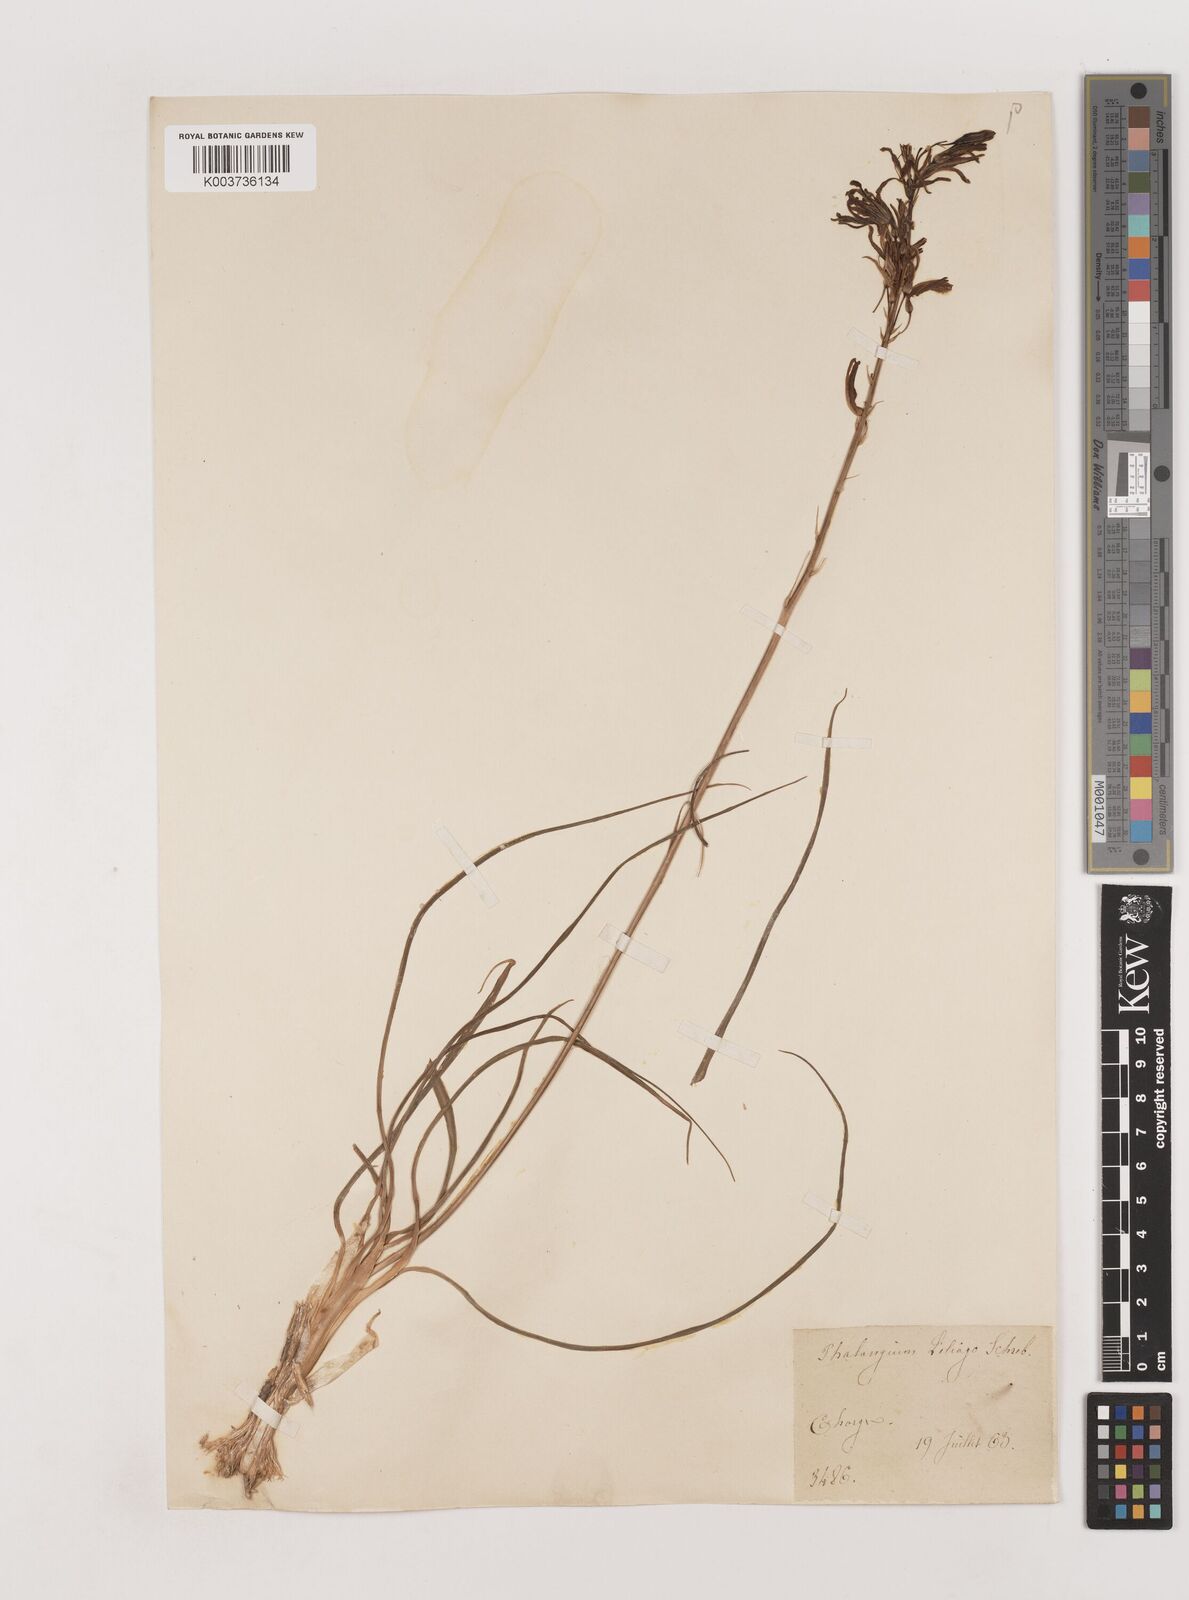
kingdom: Plantae
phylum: Tracheophyta
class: Liliopsida
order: Asparagales
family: Asparagaceae
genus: Anthericum
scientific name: Anthericum liliago
